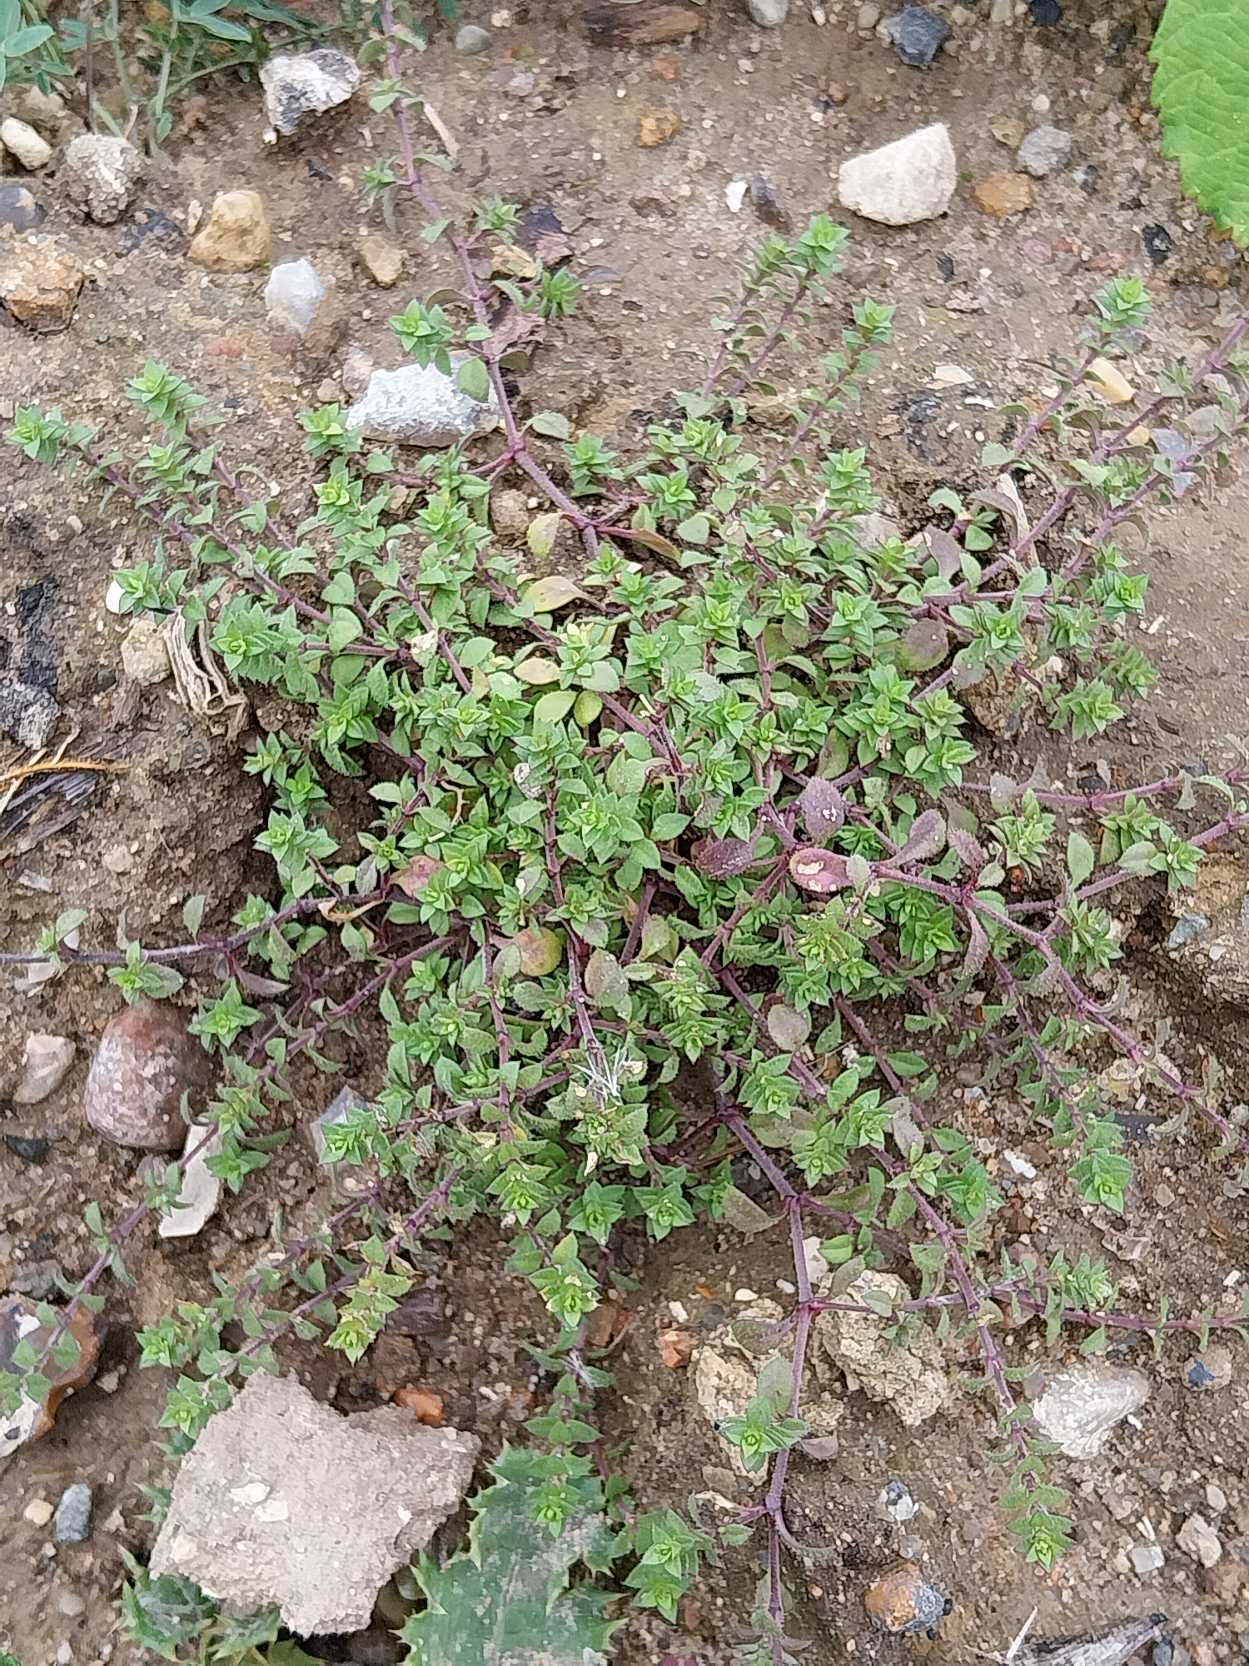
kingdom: Plantae
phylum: Tracheophyta
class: Magnoliopsida
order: Caryophyllales
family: Caryophyllaceae
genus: Arenaria
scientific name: Arenaria serpyllifolia
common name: Almindelig markarve
